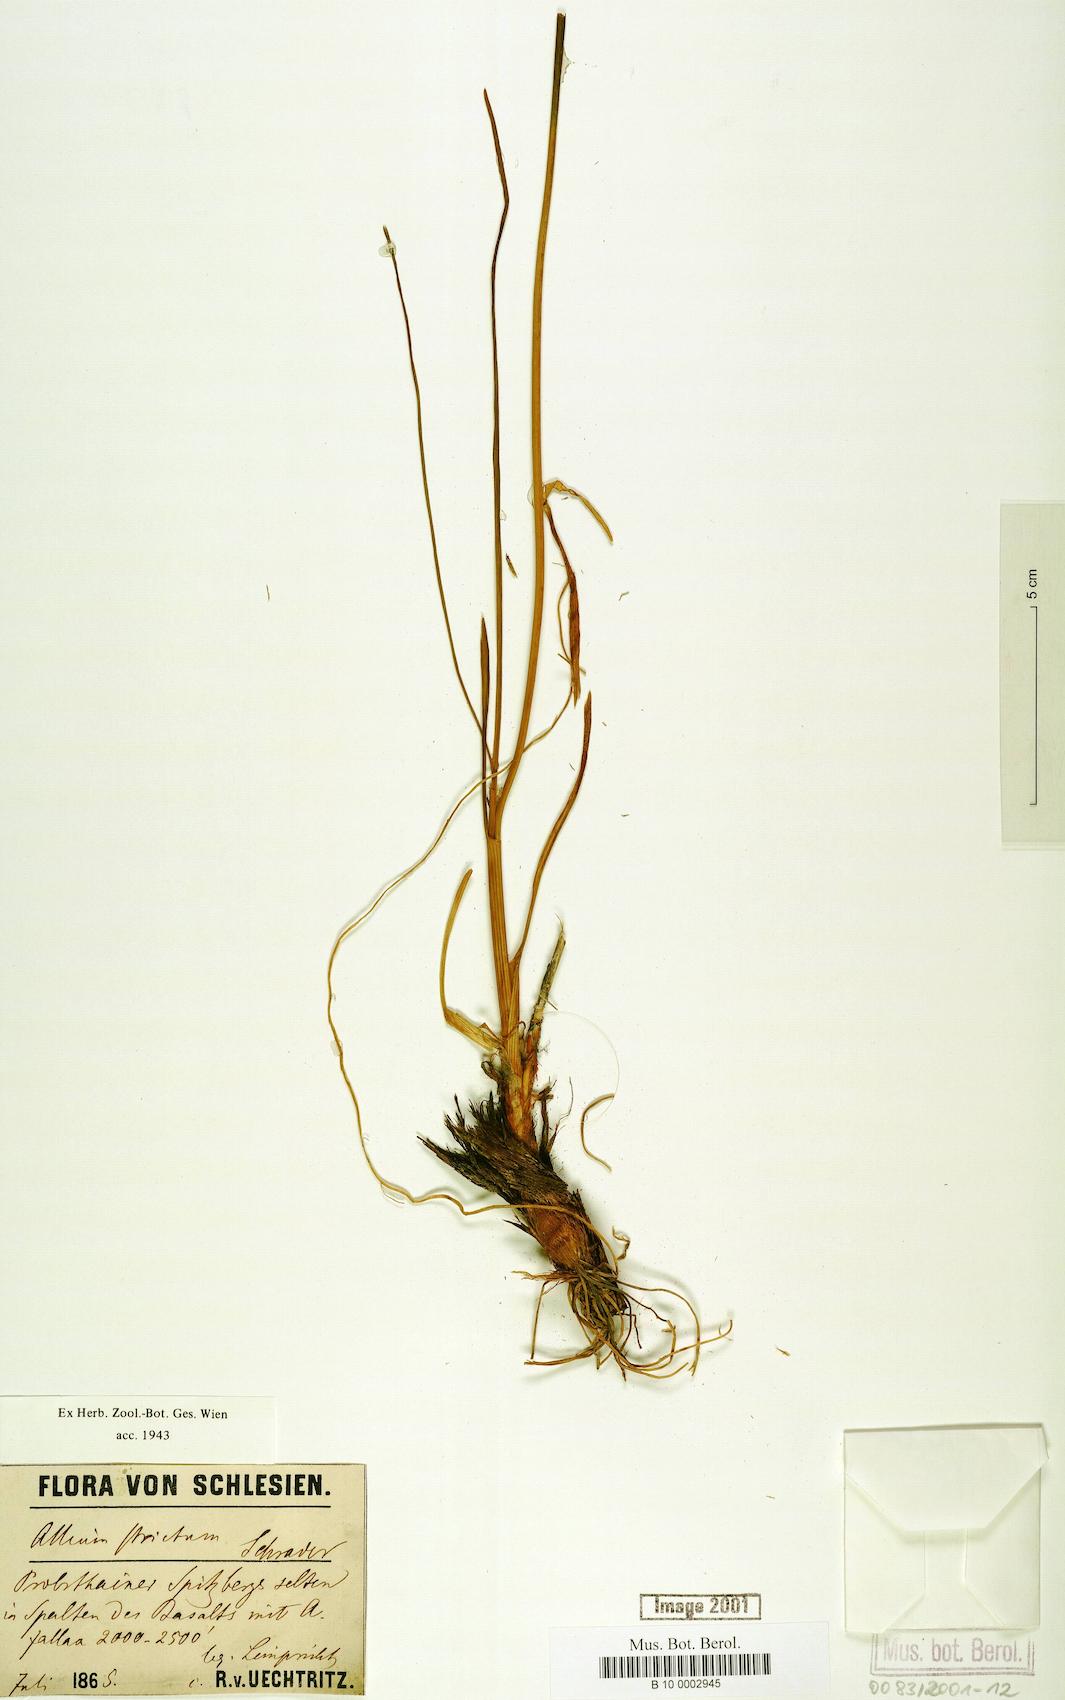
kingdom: Plantae
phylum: Tracheophyta
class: Liliopsida
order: Asparagales
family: Amaryllidaceae
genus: Allium
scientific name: Allium strictum
